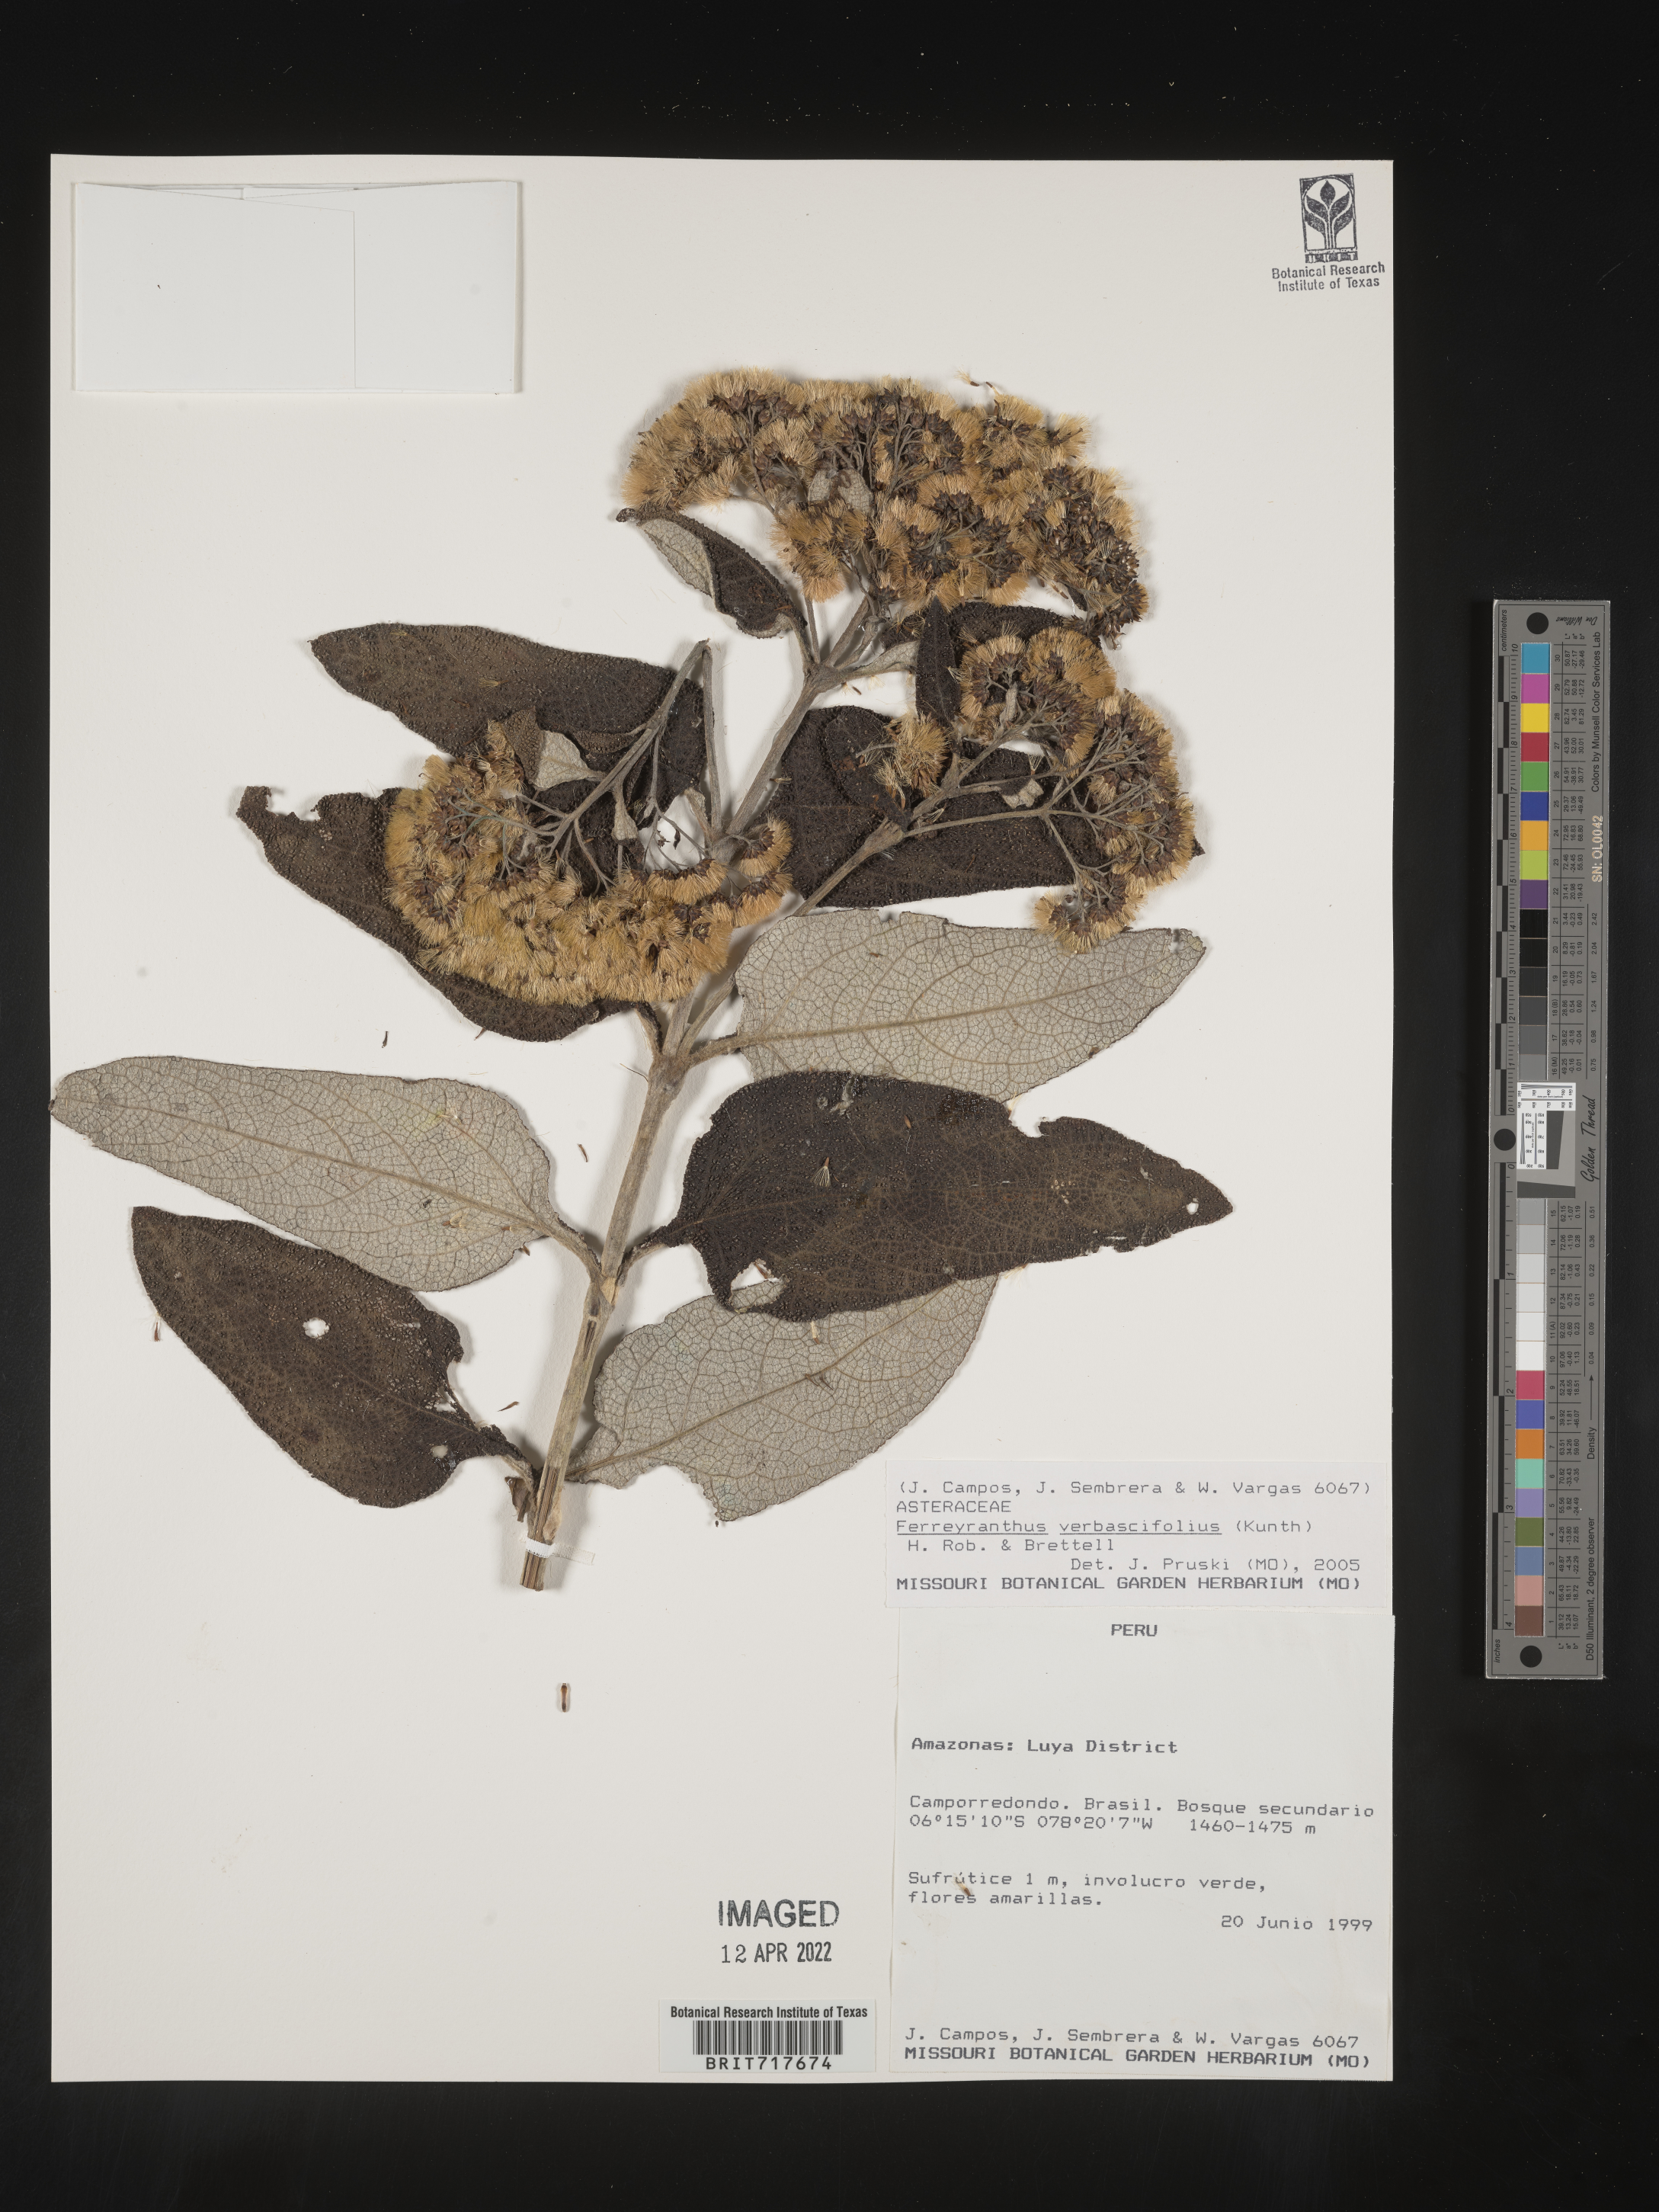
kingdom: Plantae
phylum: Tracheophyta
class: Magnoliopsida
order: Asterales
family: Asteraceae
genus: Ferreyranthus
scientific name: Ferreyranthus
